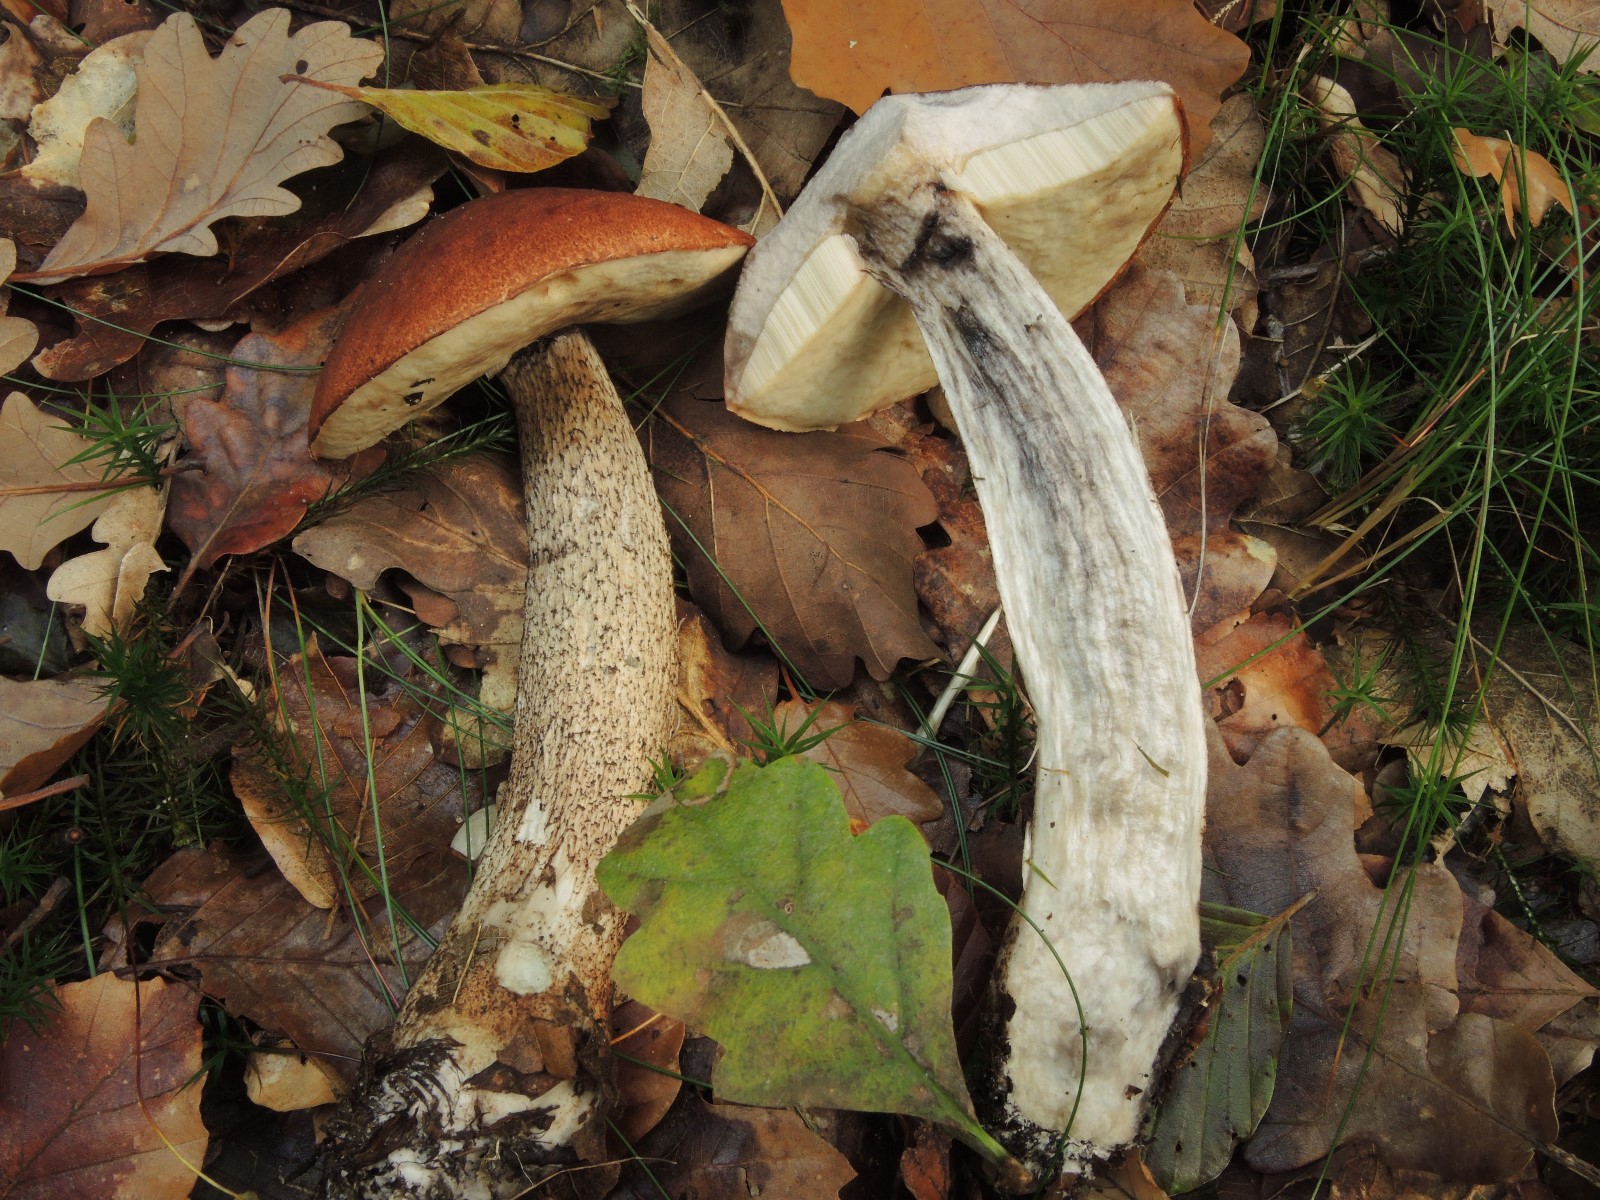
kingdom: Fungi
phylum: Basidiomycota
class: Agaricomycetes
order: Boletales
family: Boletaceae
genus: Leccinum
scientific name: Leccinum aurantiacum
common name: rustrød skælrørhat
